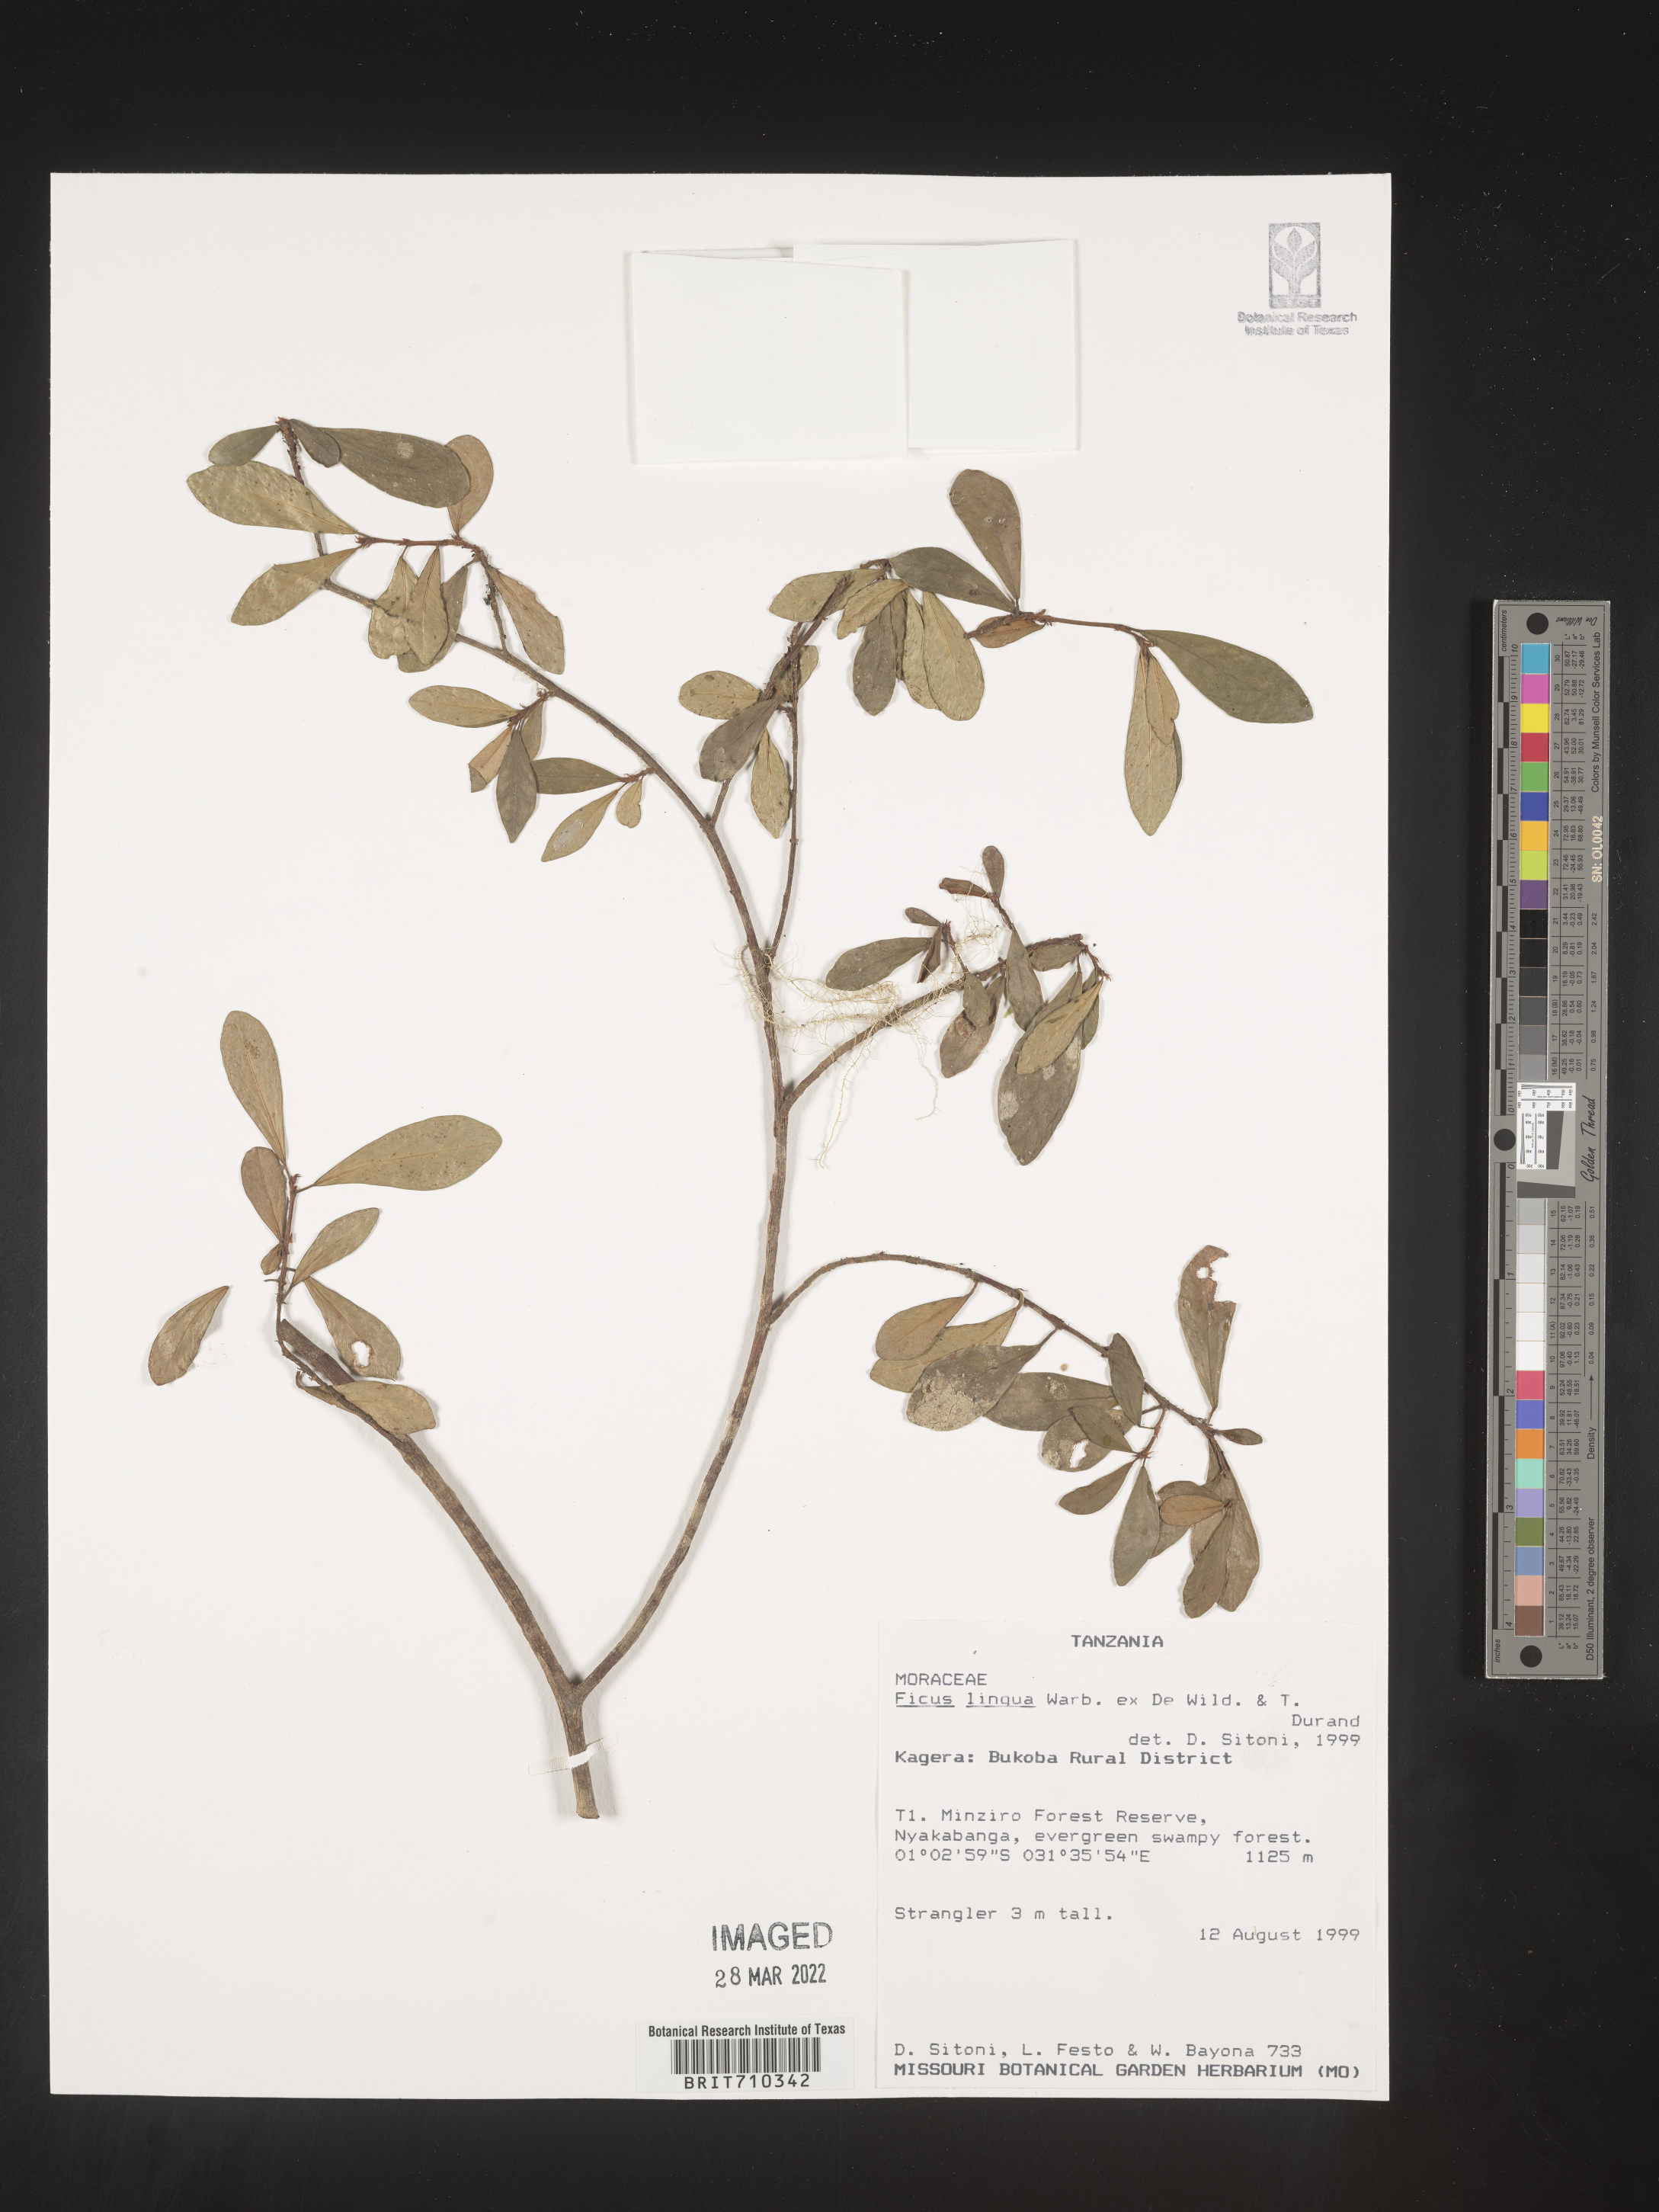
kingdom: Plantae
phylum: Tracheophyta
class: Magnoliopsida
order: Rosales
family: Moraceae
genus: Ficus
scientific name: Ficus
